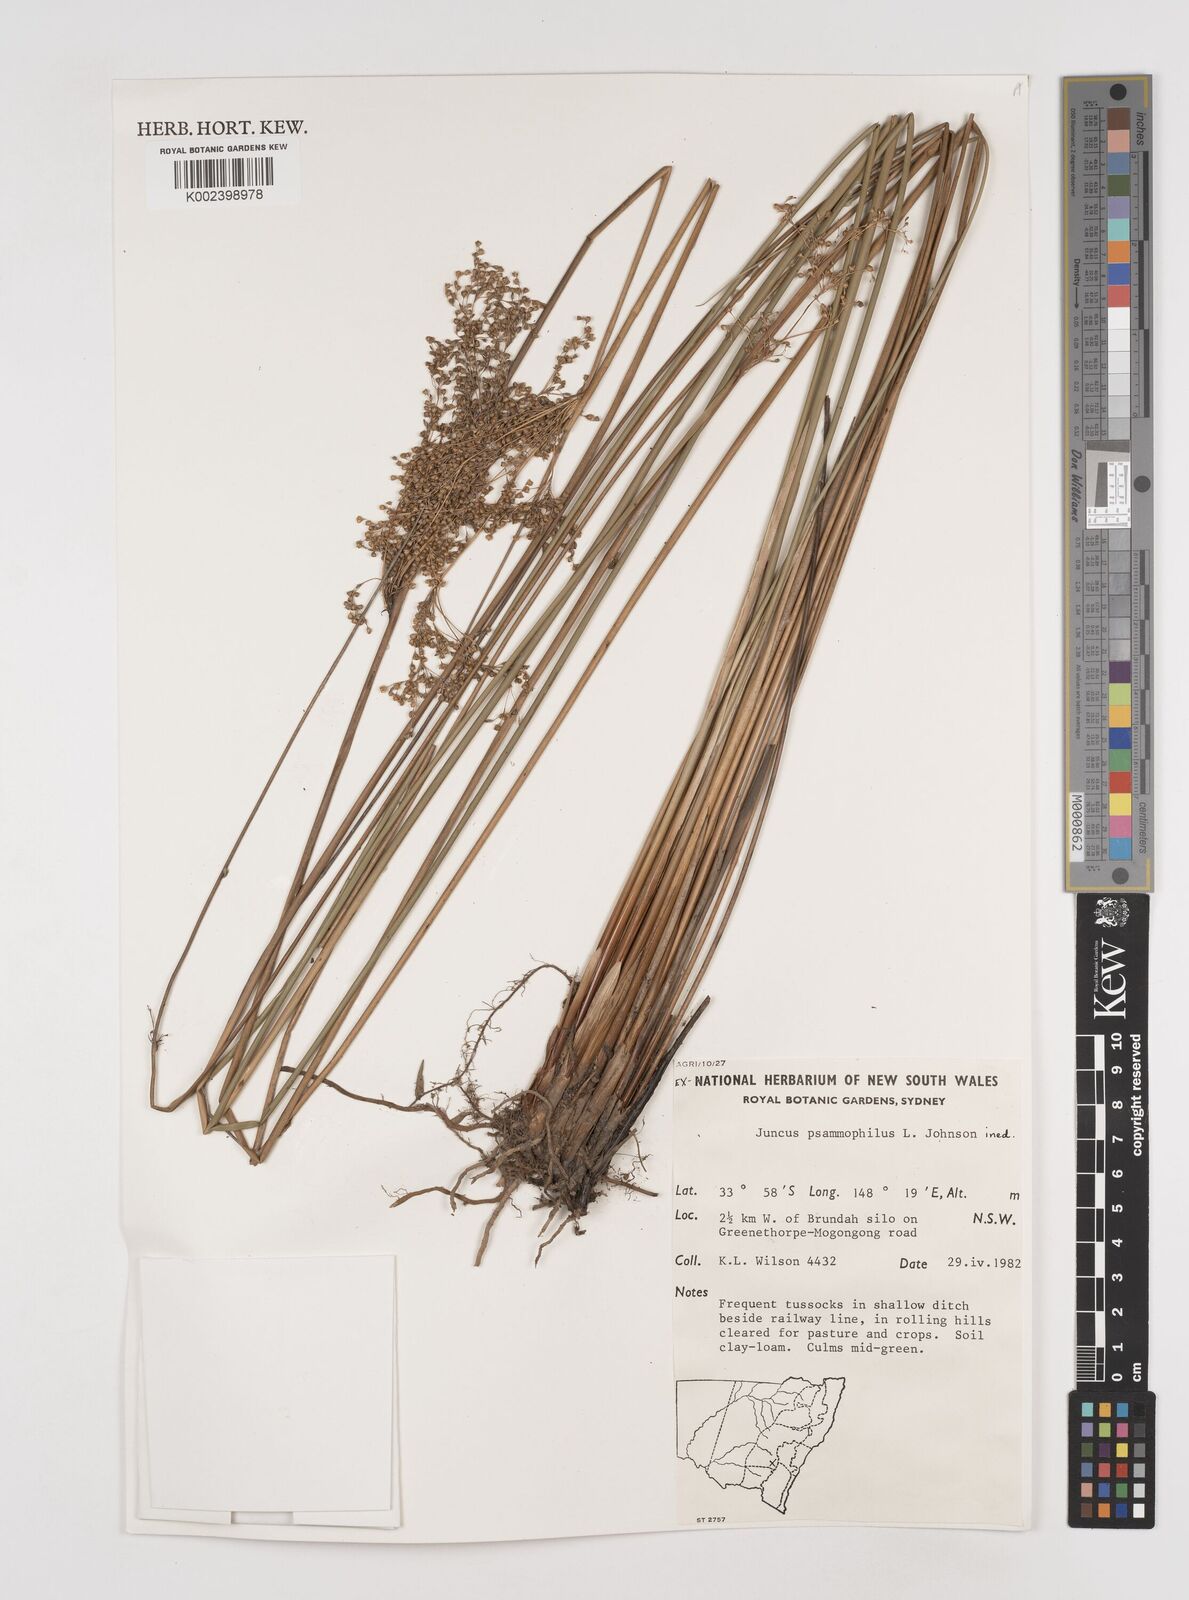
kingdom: Plantae
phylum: Tracheophyta
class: Liliopsida
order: Poales
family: Juncaceae
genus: Juncus
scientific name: Juncus psammophilus
